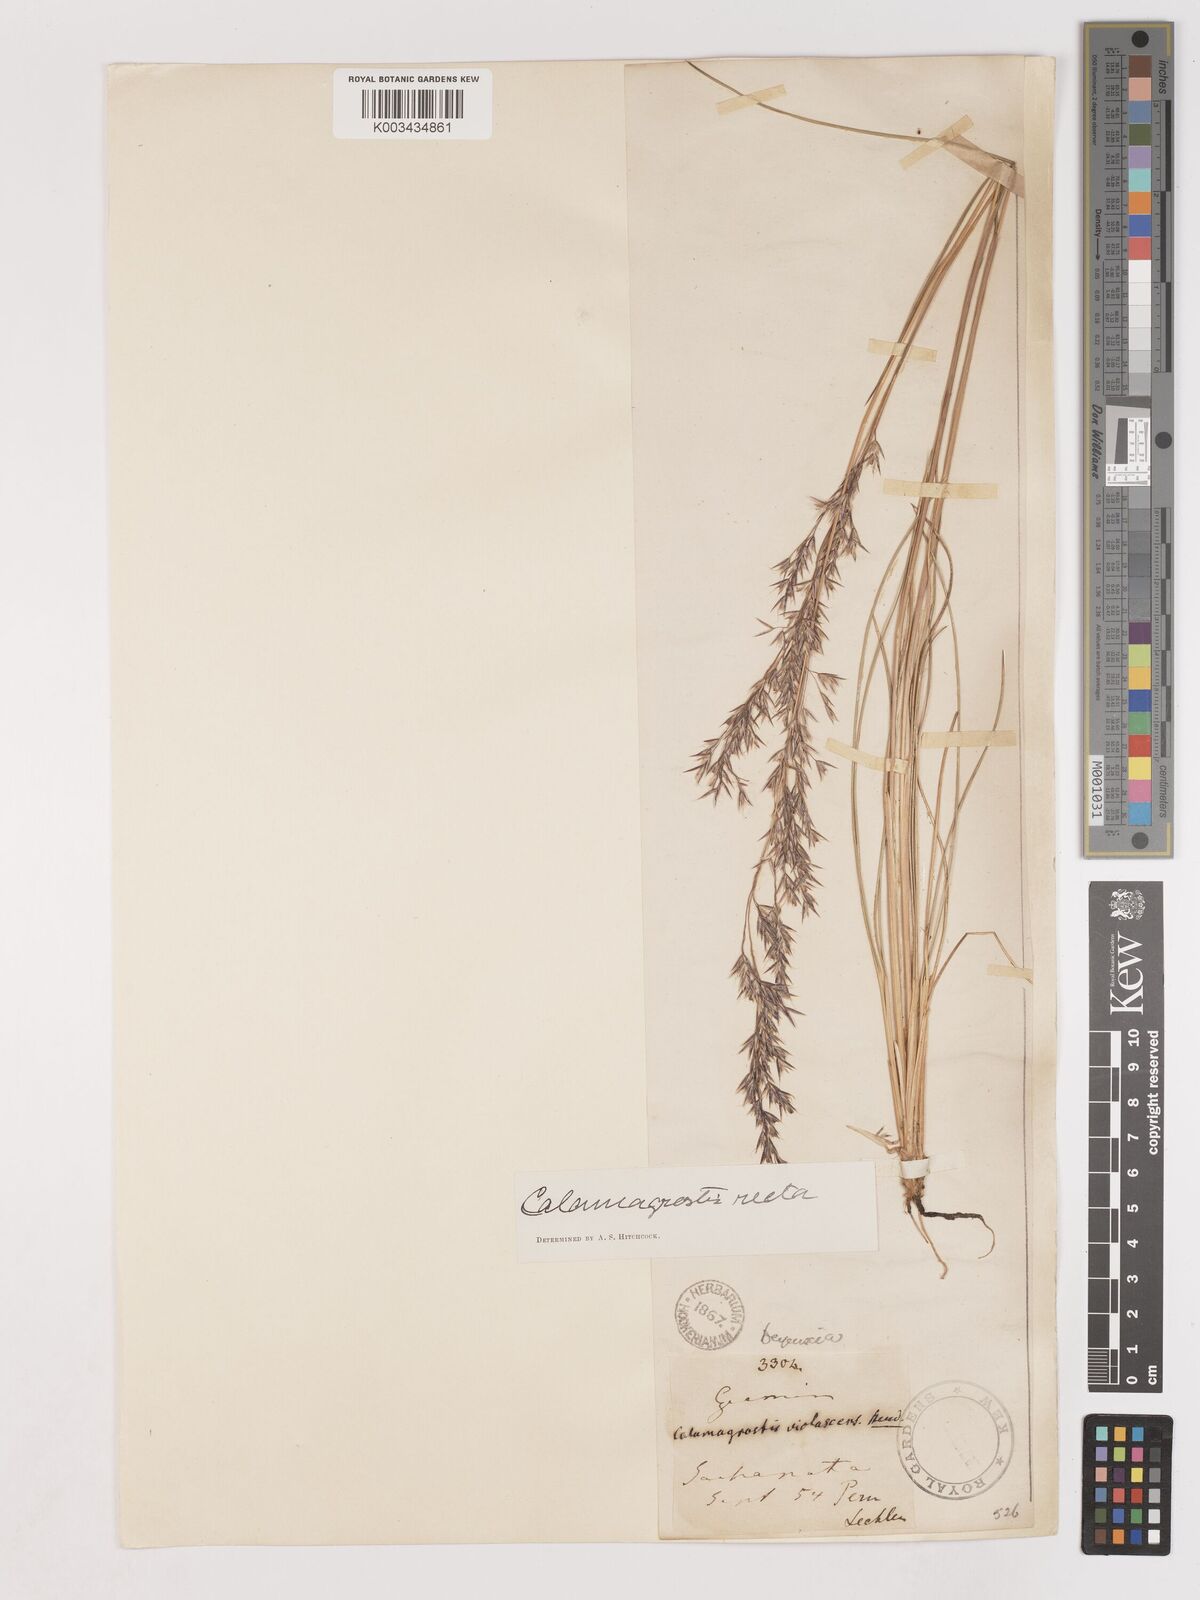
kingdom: Plantae
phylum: Tracheophyta
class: Liliopsida
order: Poales
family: Poaceae
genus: Cinnagrostis
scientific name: Cinnagrostis recta
